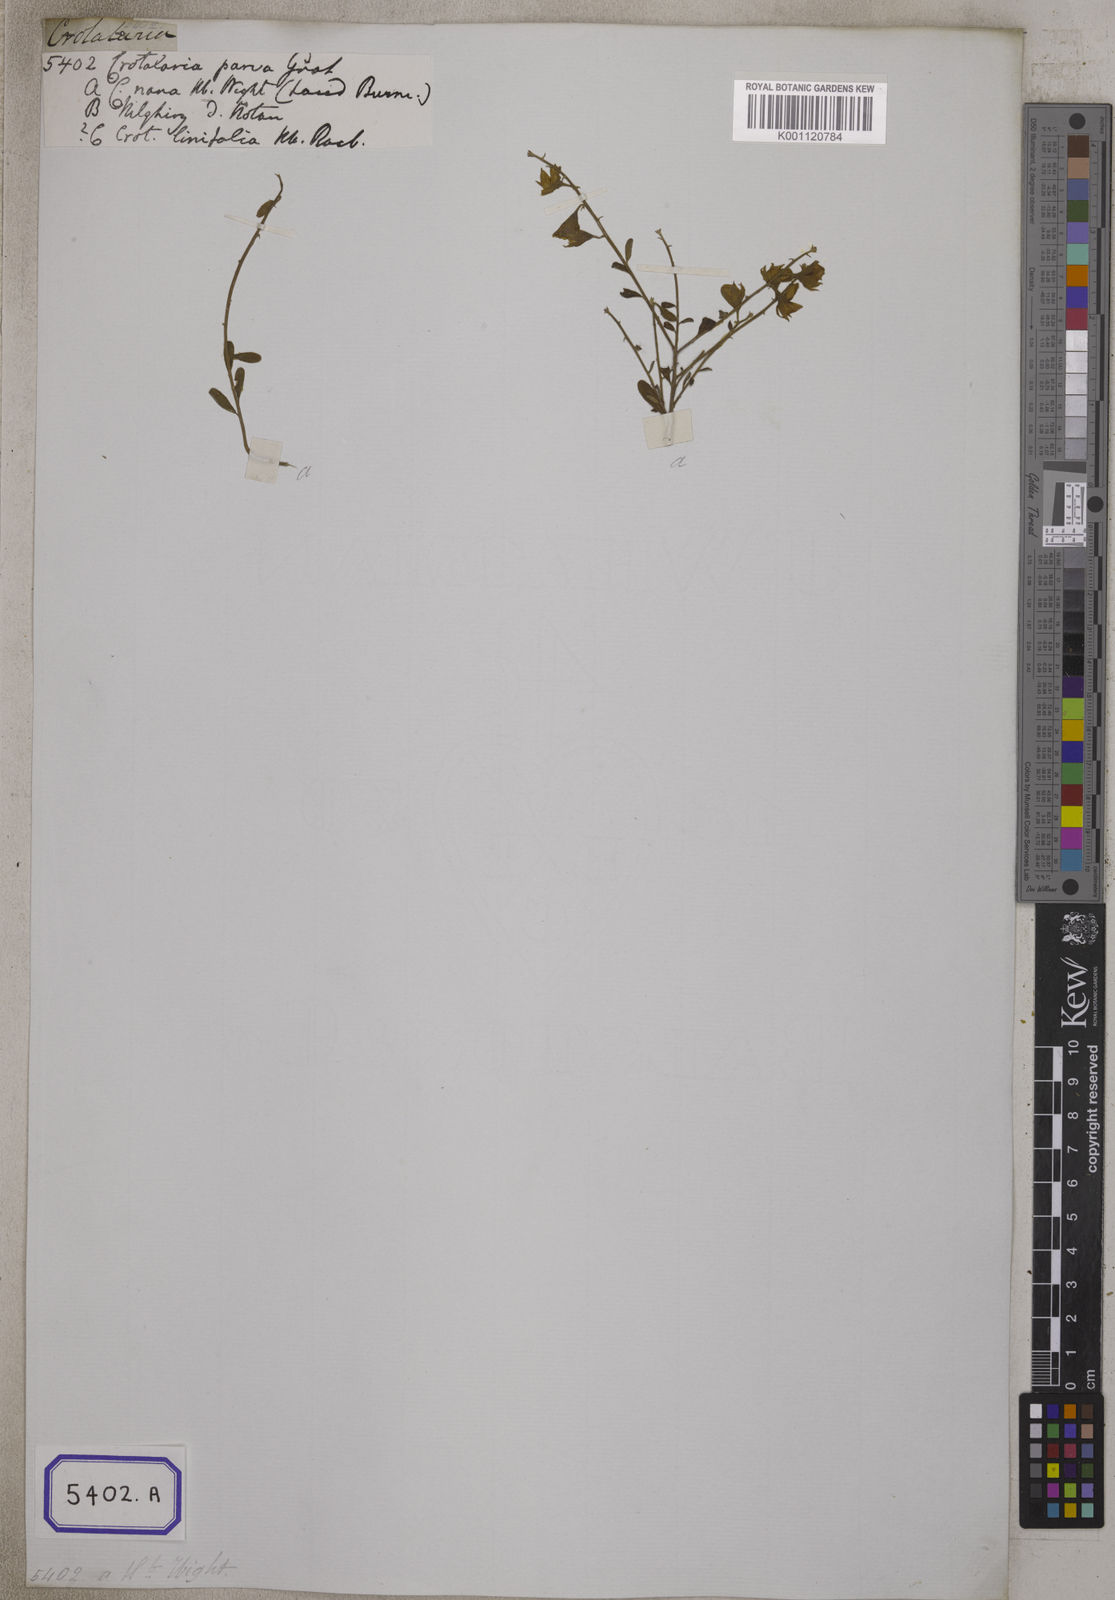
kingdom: Plantae
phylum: Tracheophyta
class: Magnoliopsida
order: Fabales
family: Fabaceae
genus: Crotalaria
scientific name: Crotalaria albida
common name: Taiwan crotalaria
